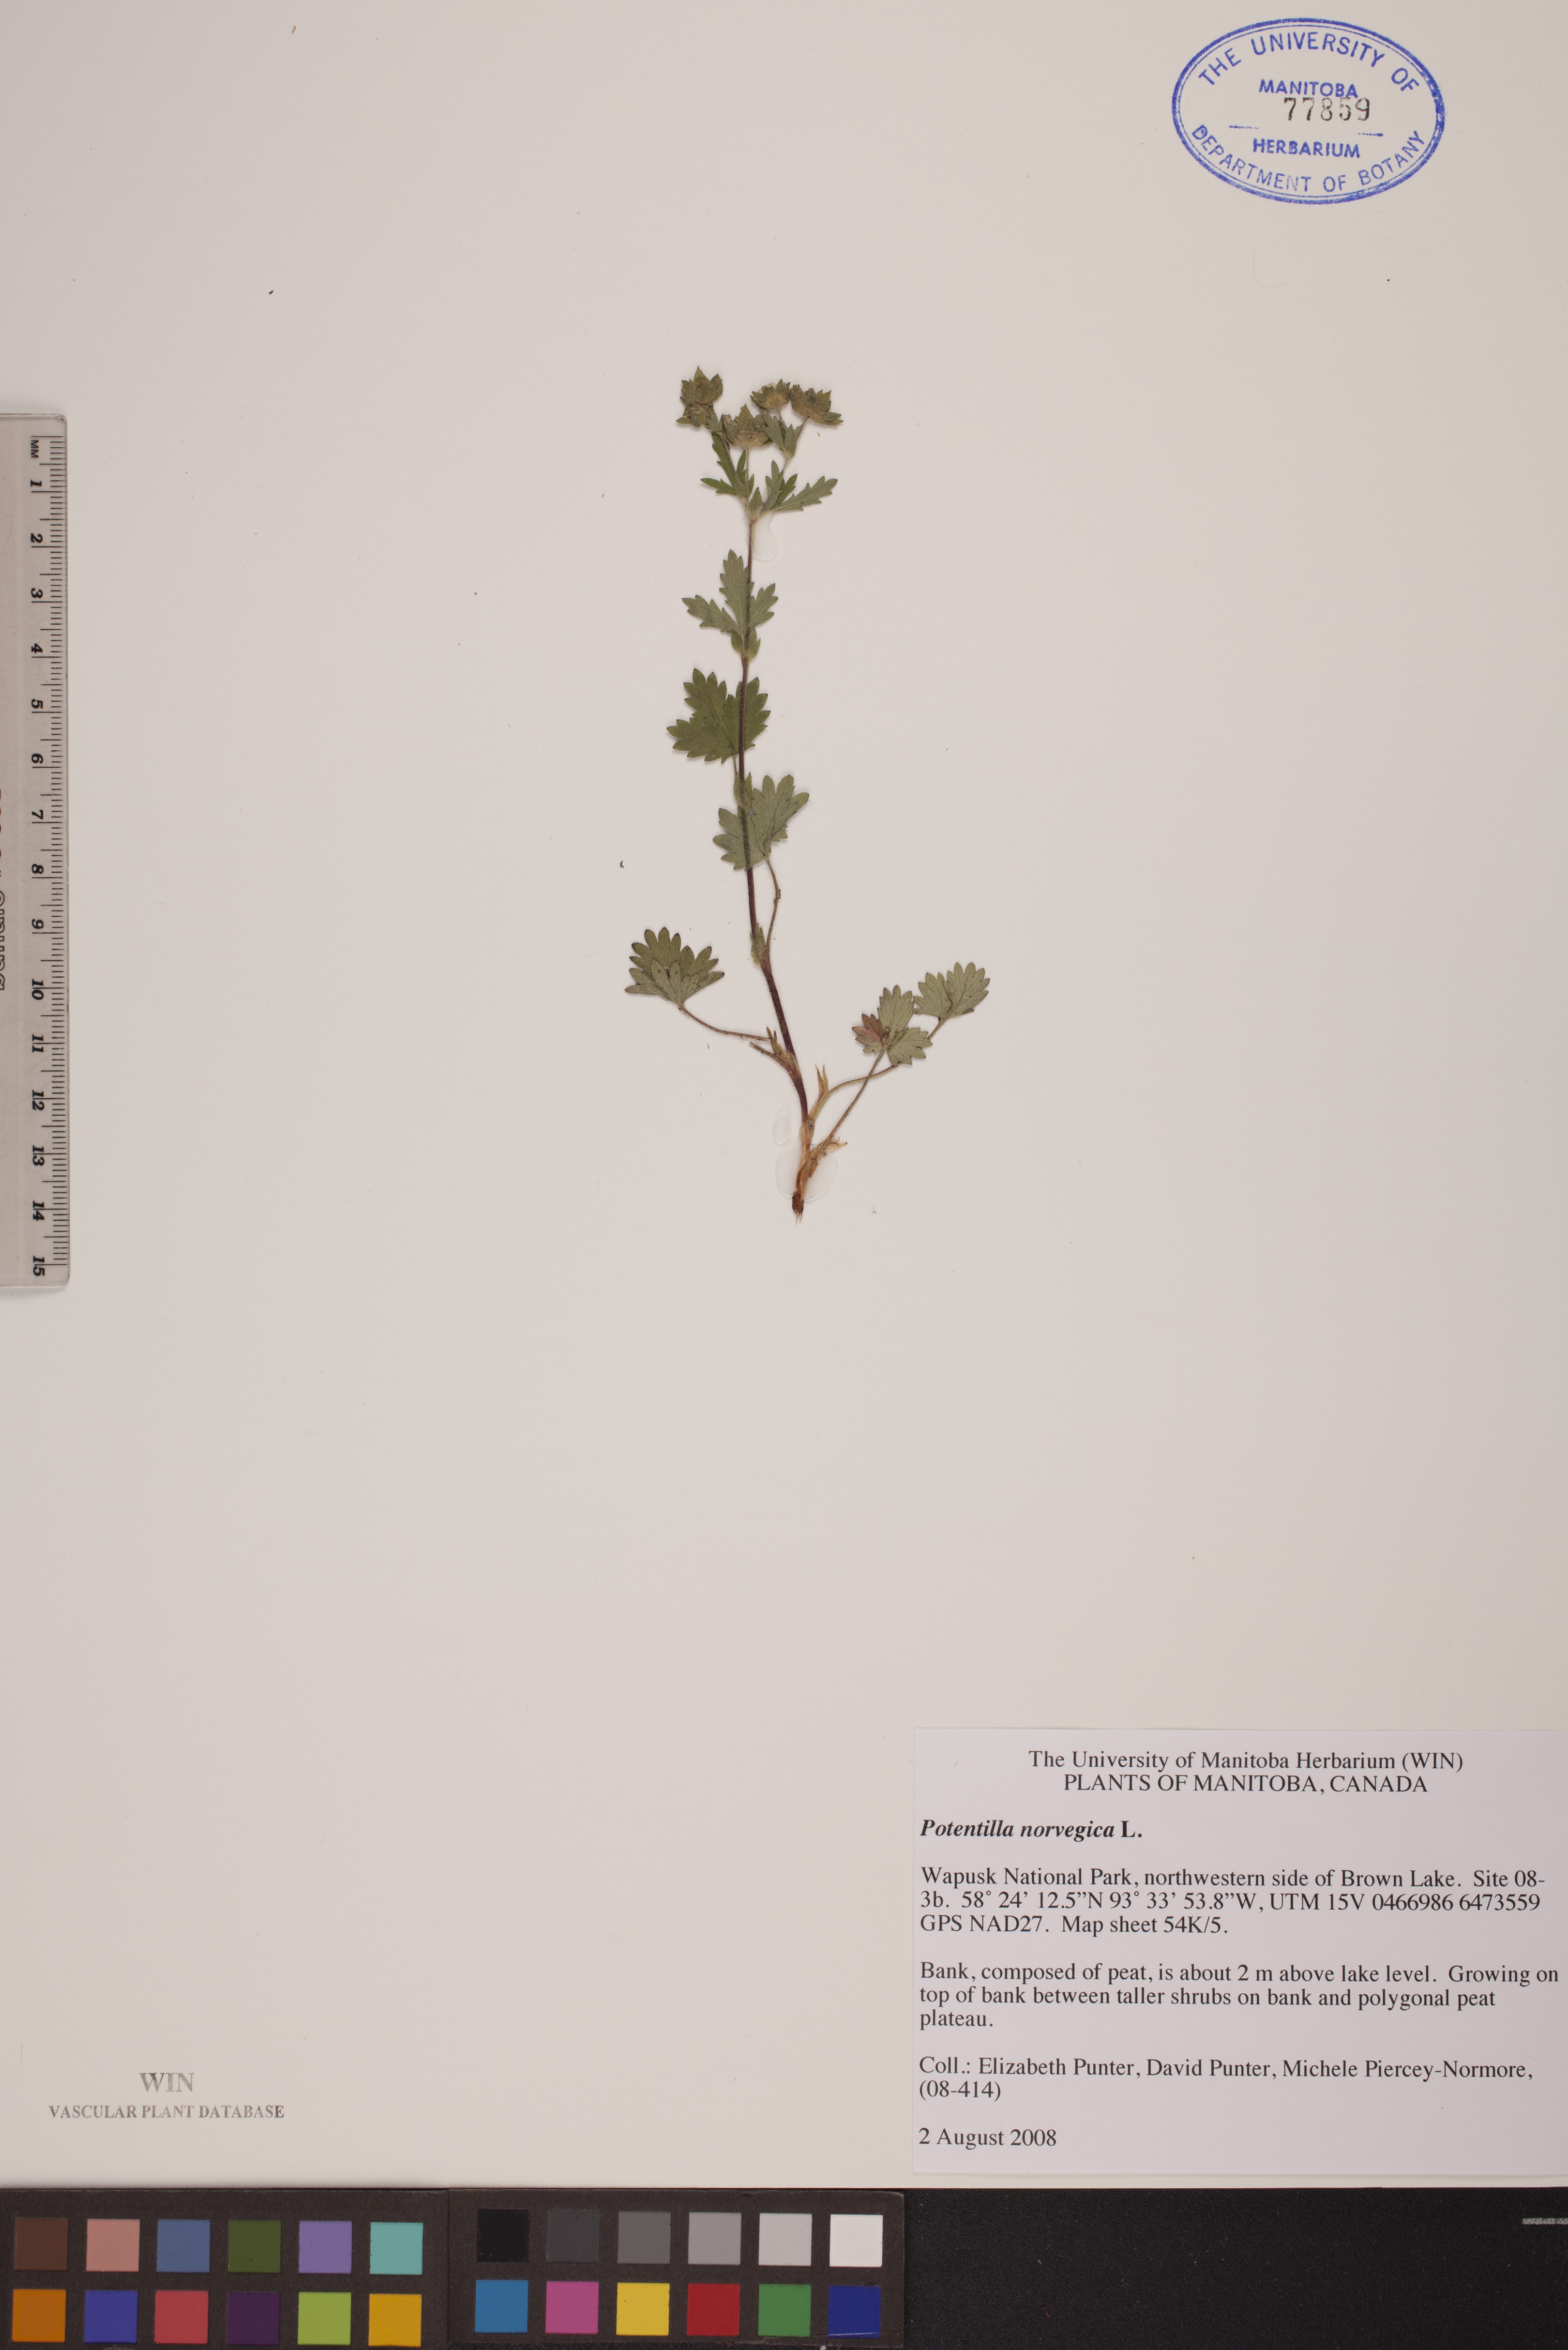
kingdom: Plantae
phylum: Tracheophyta
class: Magnoliopsida
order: Rosales
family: Rosaceae
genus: Potentilla
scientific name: Potentilla norvegica
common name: Ternate-leaved cinquefoil
